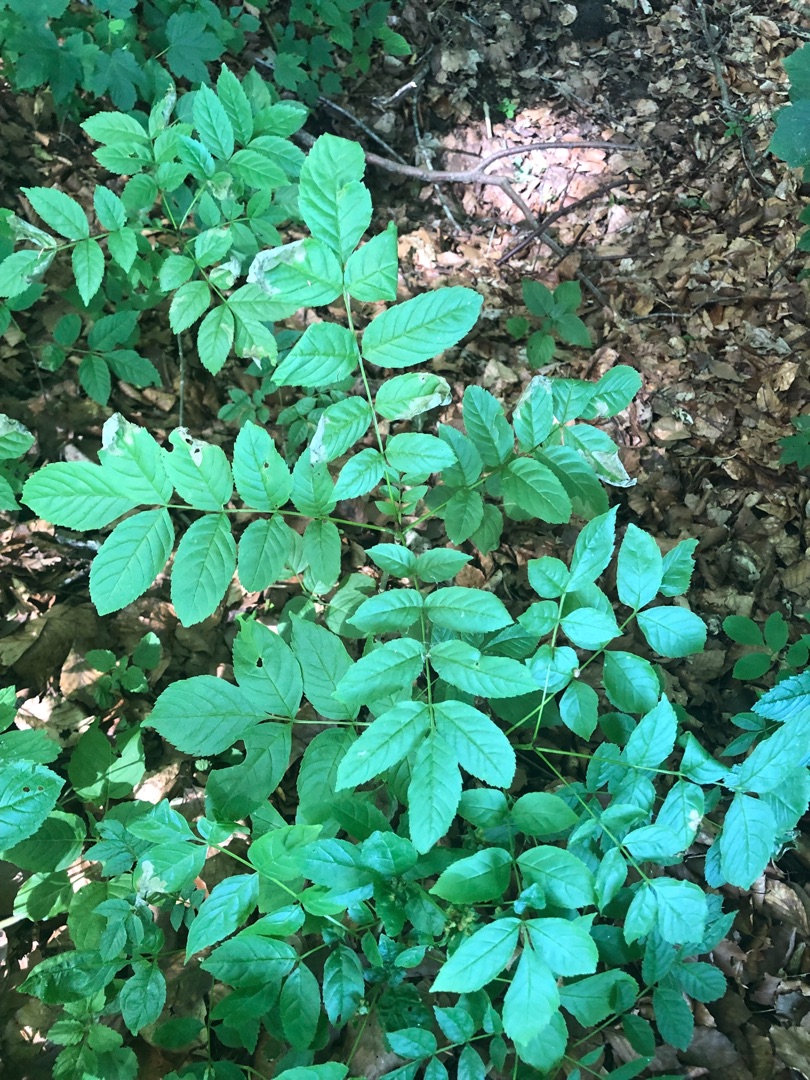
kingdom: Plantae
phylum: Tracheophyta
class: Magnoliopsida
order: Lamiales
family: Oleaceae
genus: Fraxinus
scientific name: Fraxinus excelsior
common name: Ask
